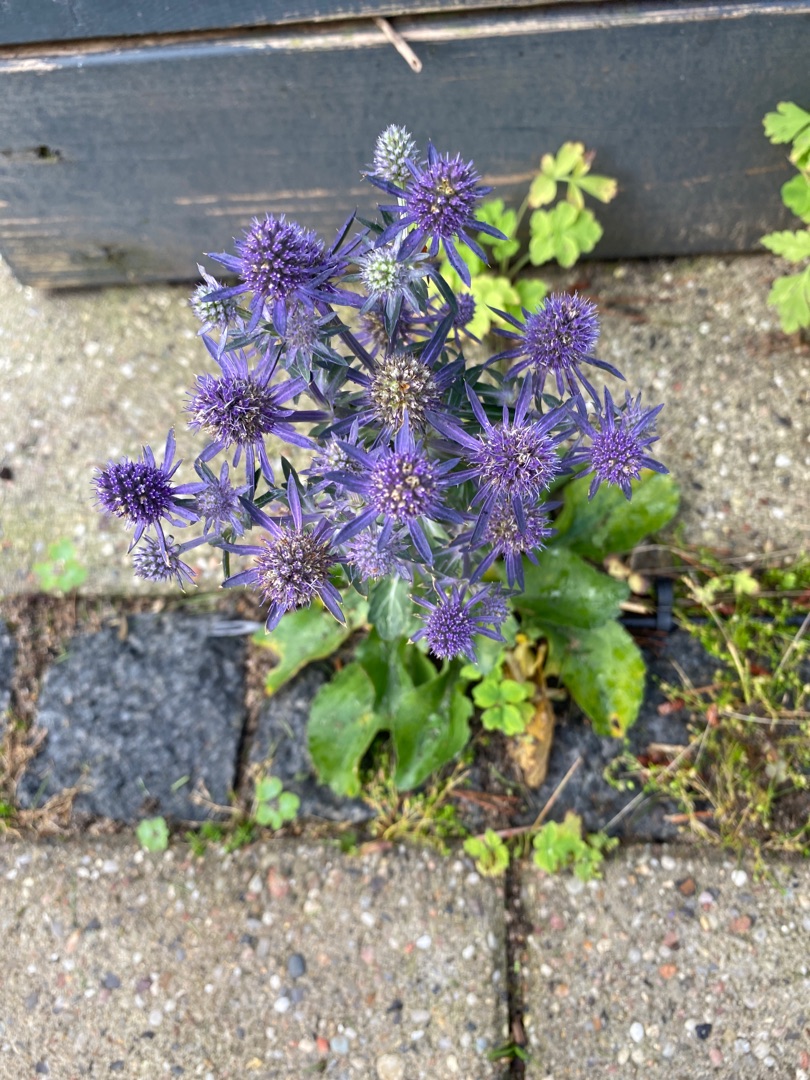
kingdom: Plantae
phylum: Tracheophyta
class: Magnoliopsida
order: Apiales
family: Apiaceae
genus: Eryngium
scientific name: Eryngium planum
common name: Russisk mandstro
